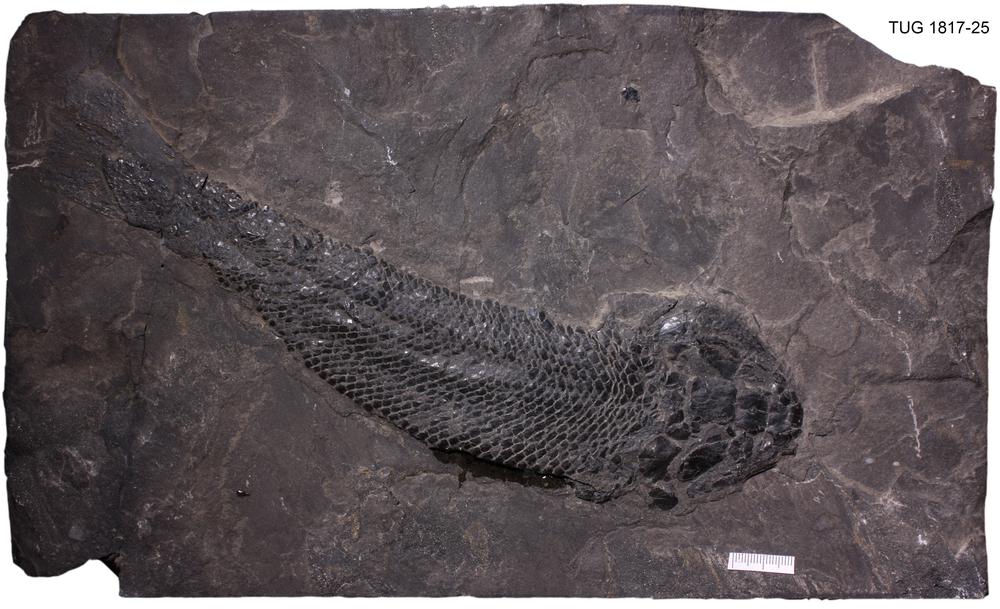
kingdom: Animalia
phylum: Chordata
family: Osteolepididae
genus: Gyroptychius
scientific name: Gyroptychius agassizi
